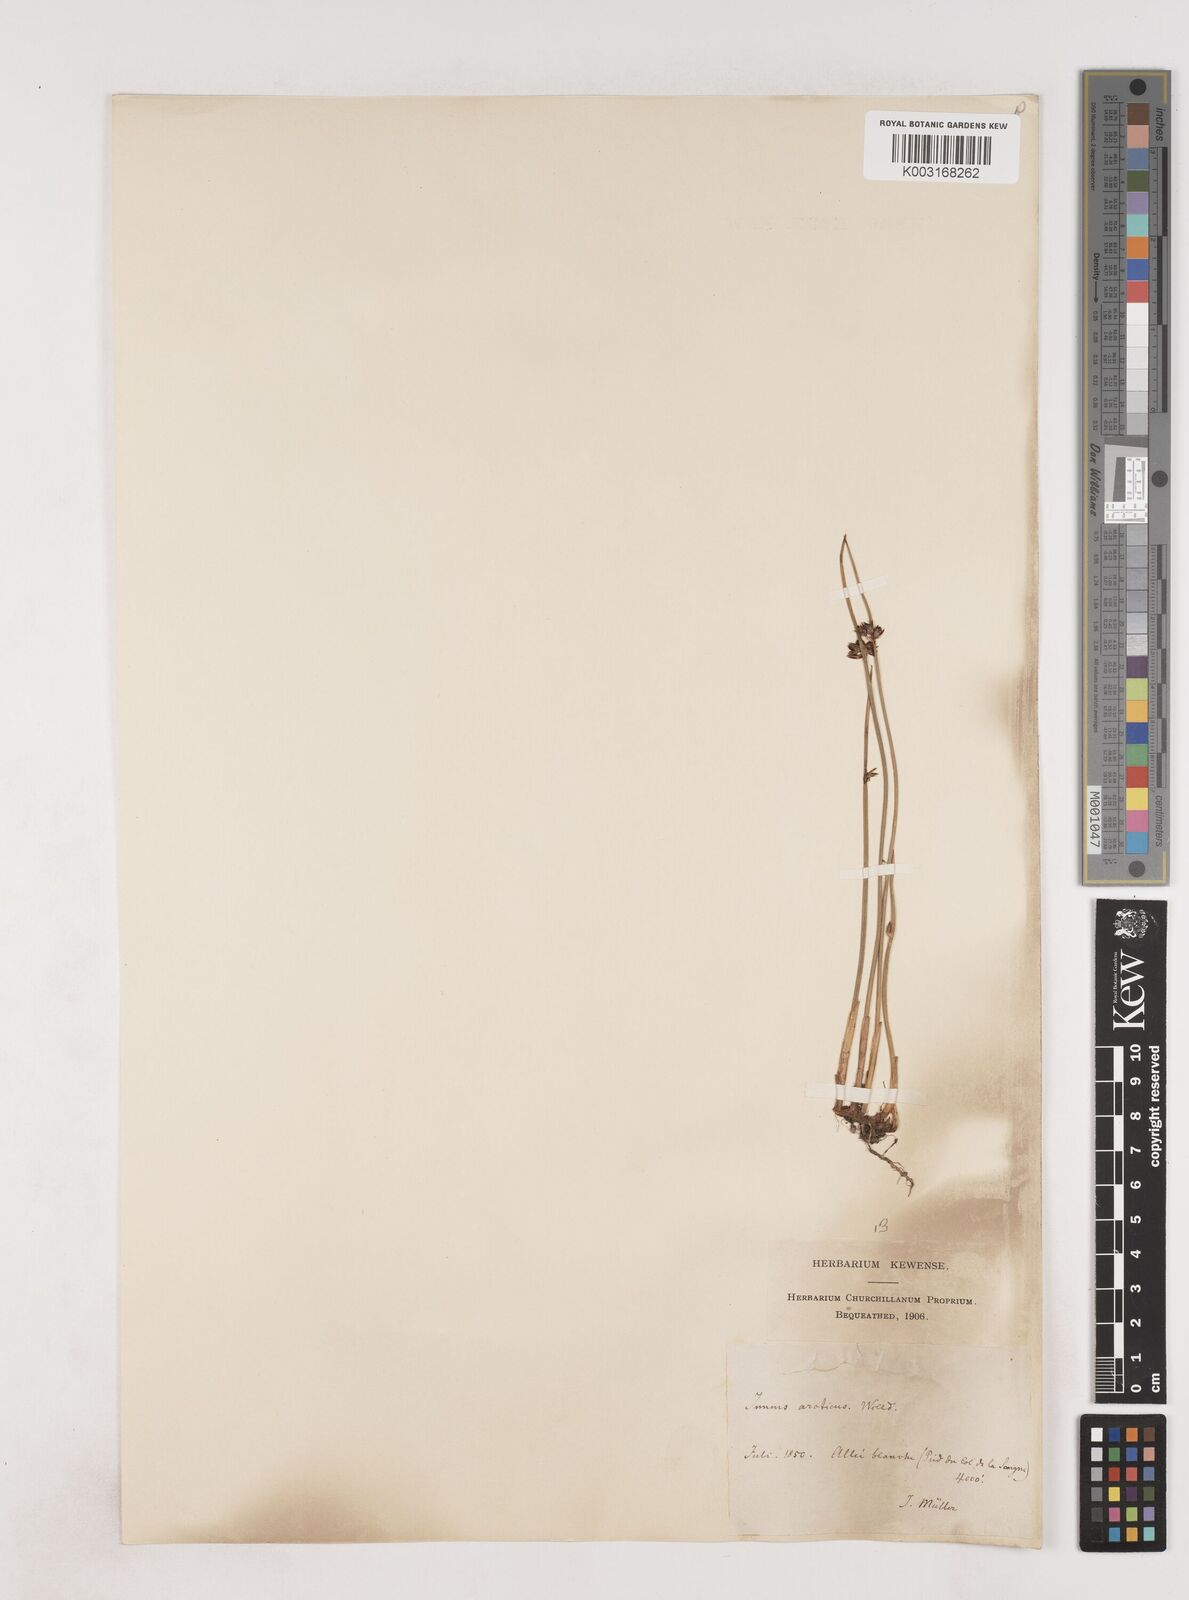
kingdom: Plantae
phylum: Tracheophyta
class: Liliopsida
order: Poales
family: Juncaceae
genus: Juncus
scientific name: Juncus arcticus
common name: Arctic rush
